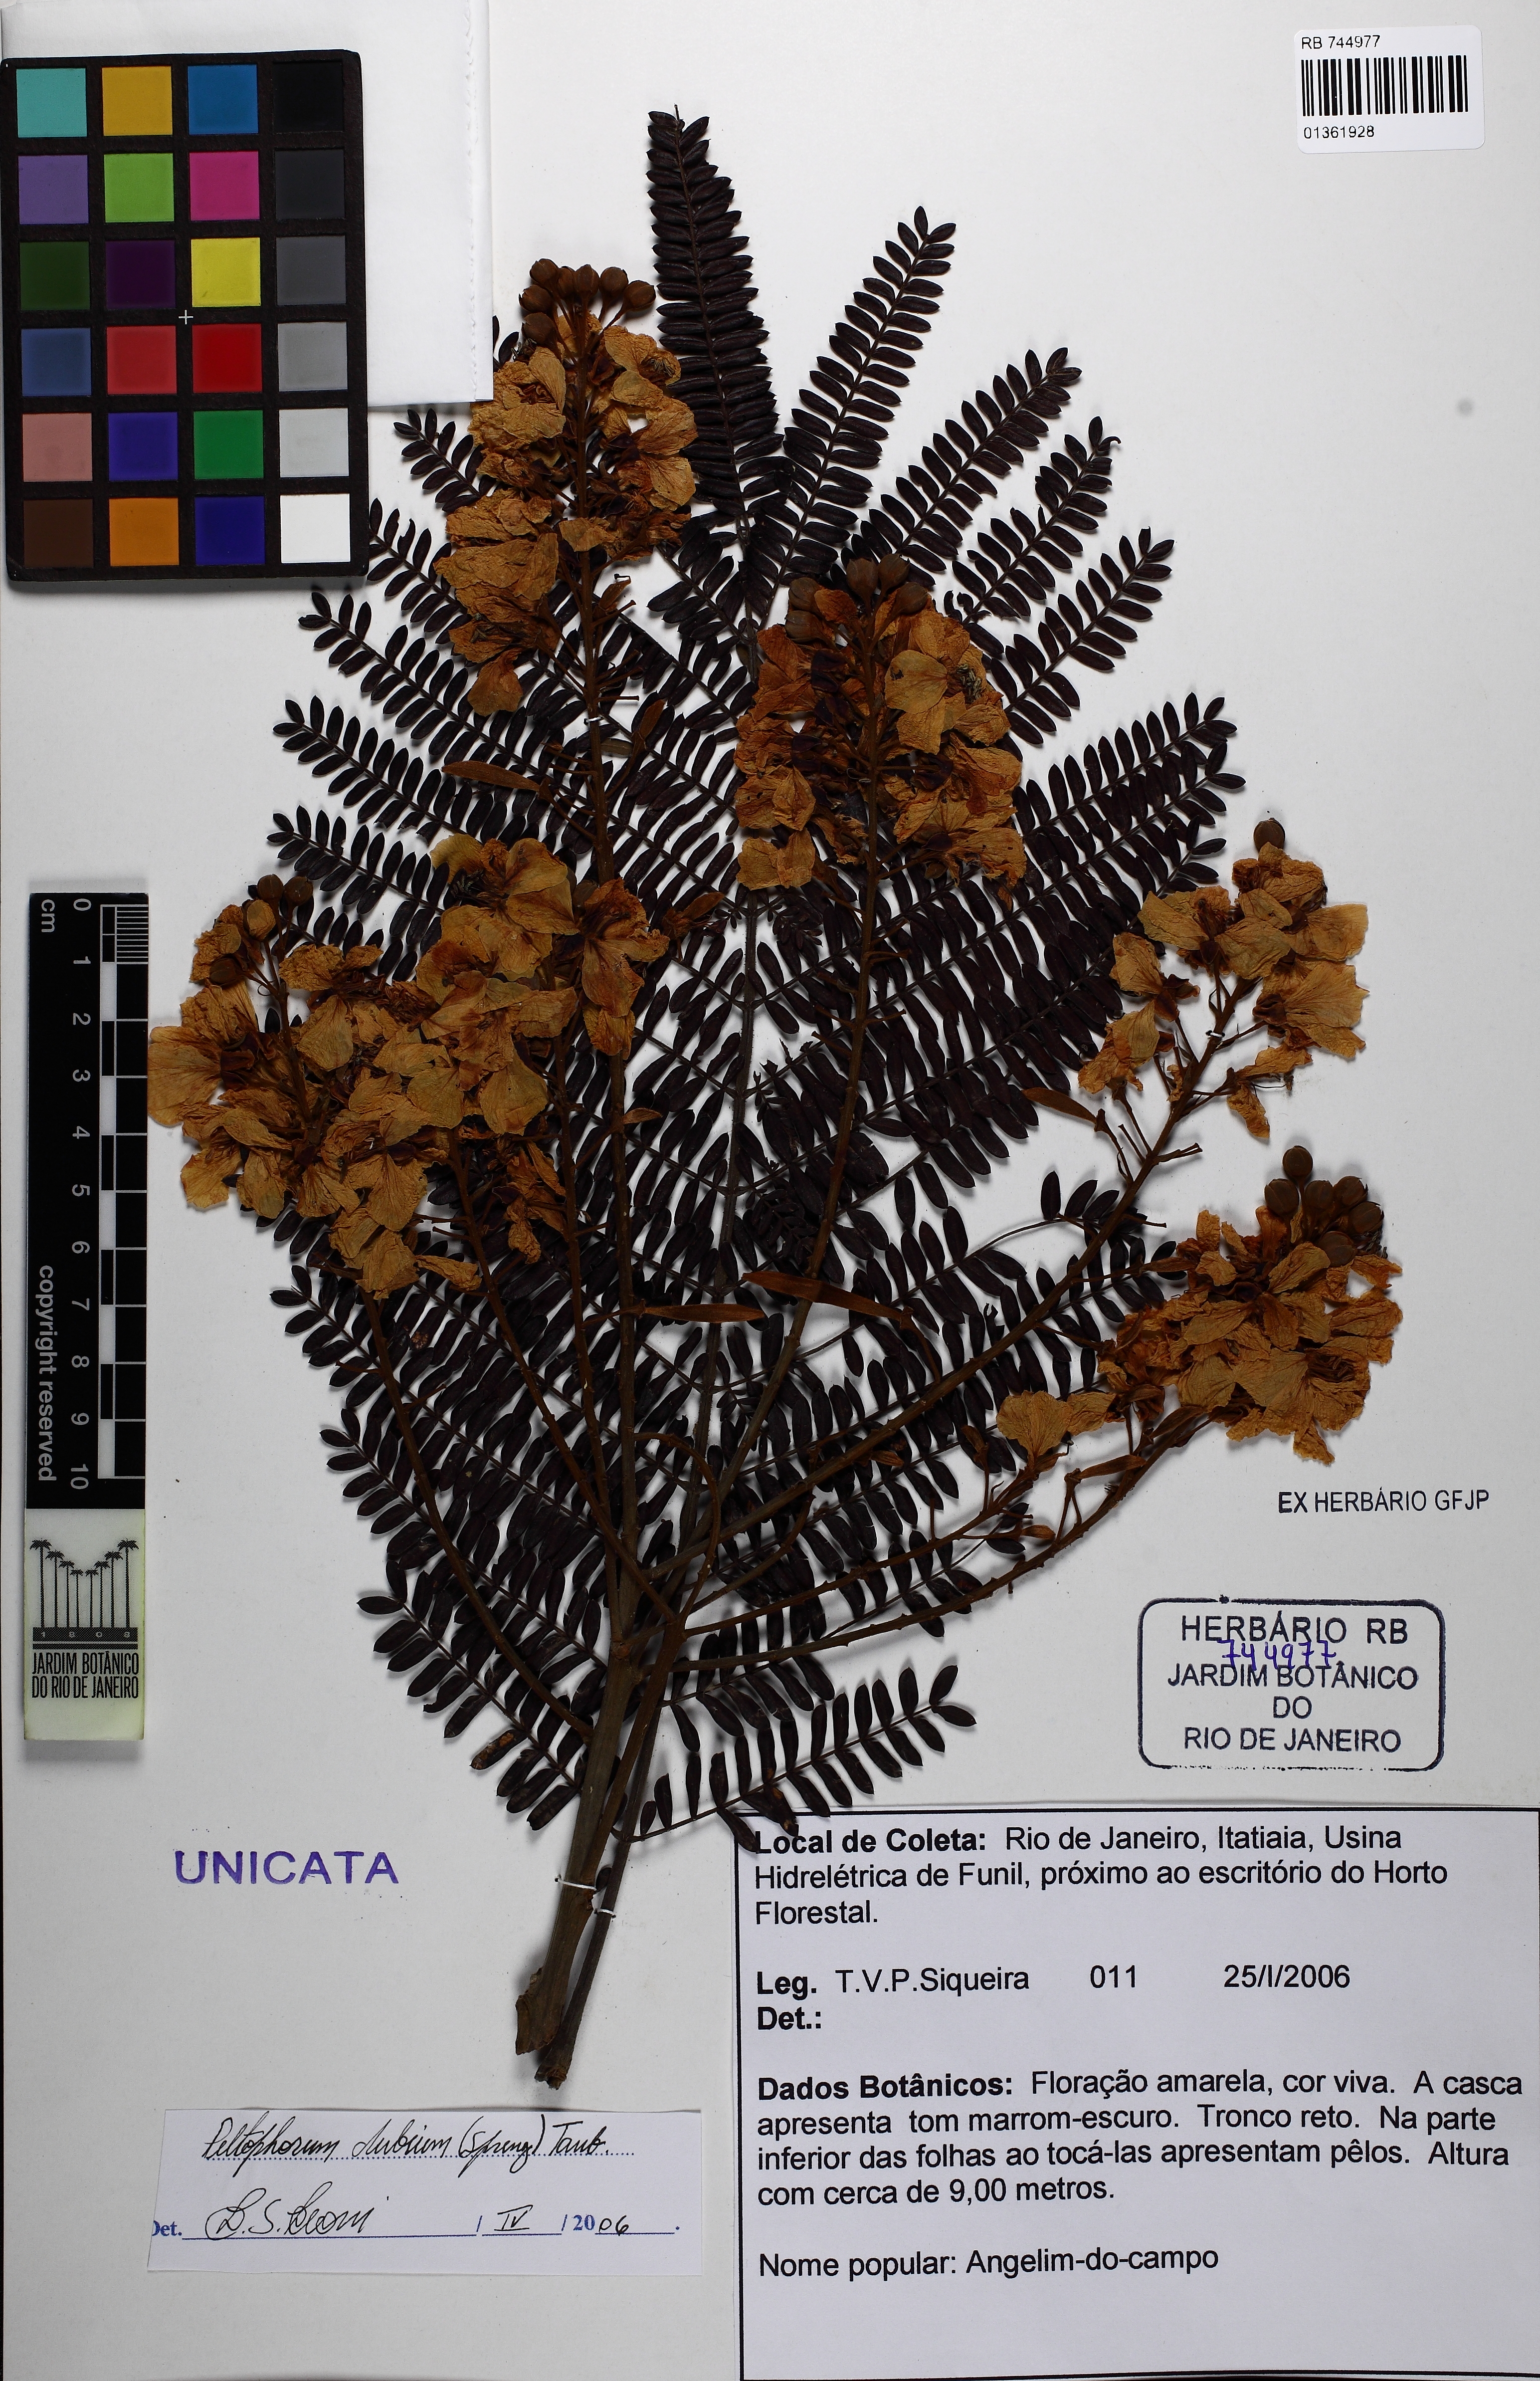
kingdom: Plantae
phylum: Tracheophyta
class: Magnoliopsida
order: Fabales
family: Fabaceae
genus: Peltophorum
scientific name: Peltophorum dubium
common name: Horsebush
